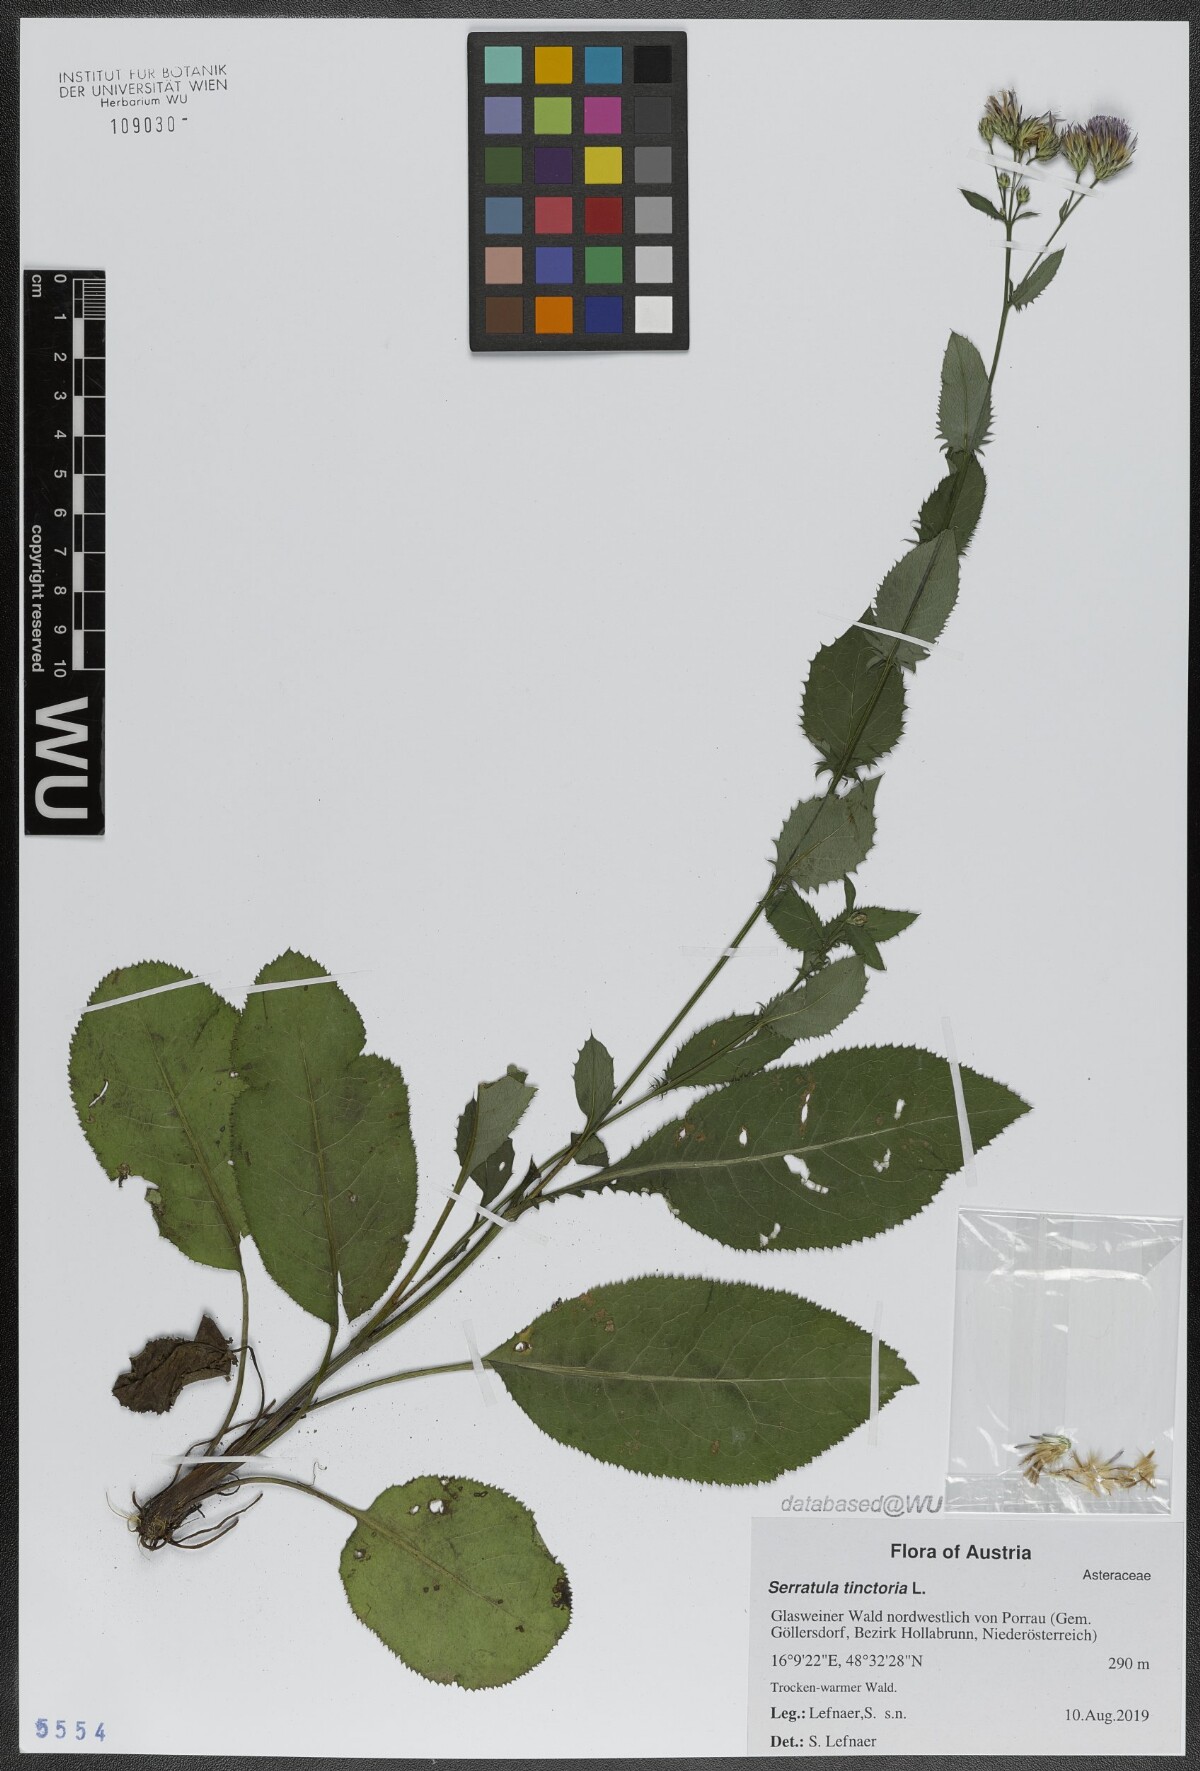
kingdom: Plantae
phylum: Tracheophyta
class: Magnoliopsida
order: Asterales
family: Asteraceae
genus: Serratula
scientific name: Serratula tinctoria
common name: Saw-wort
